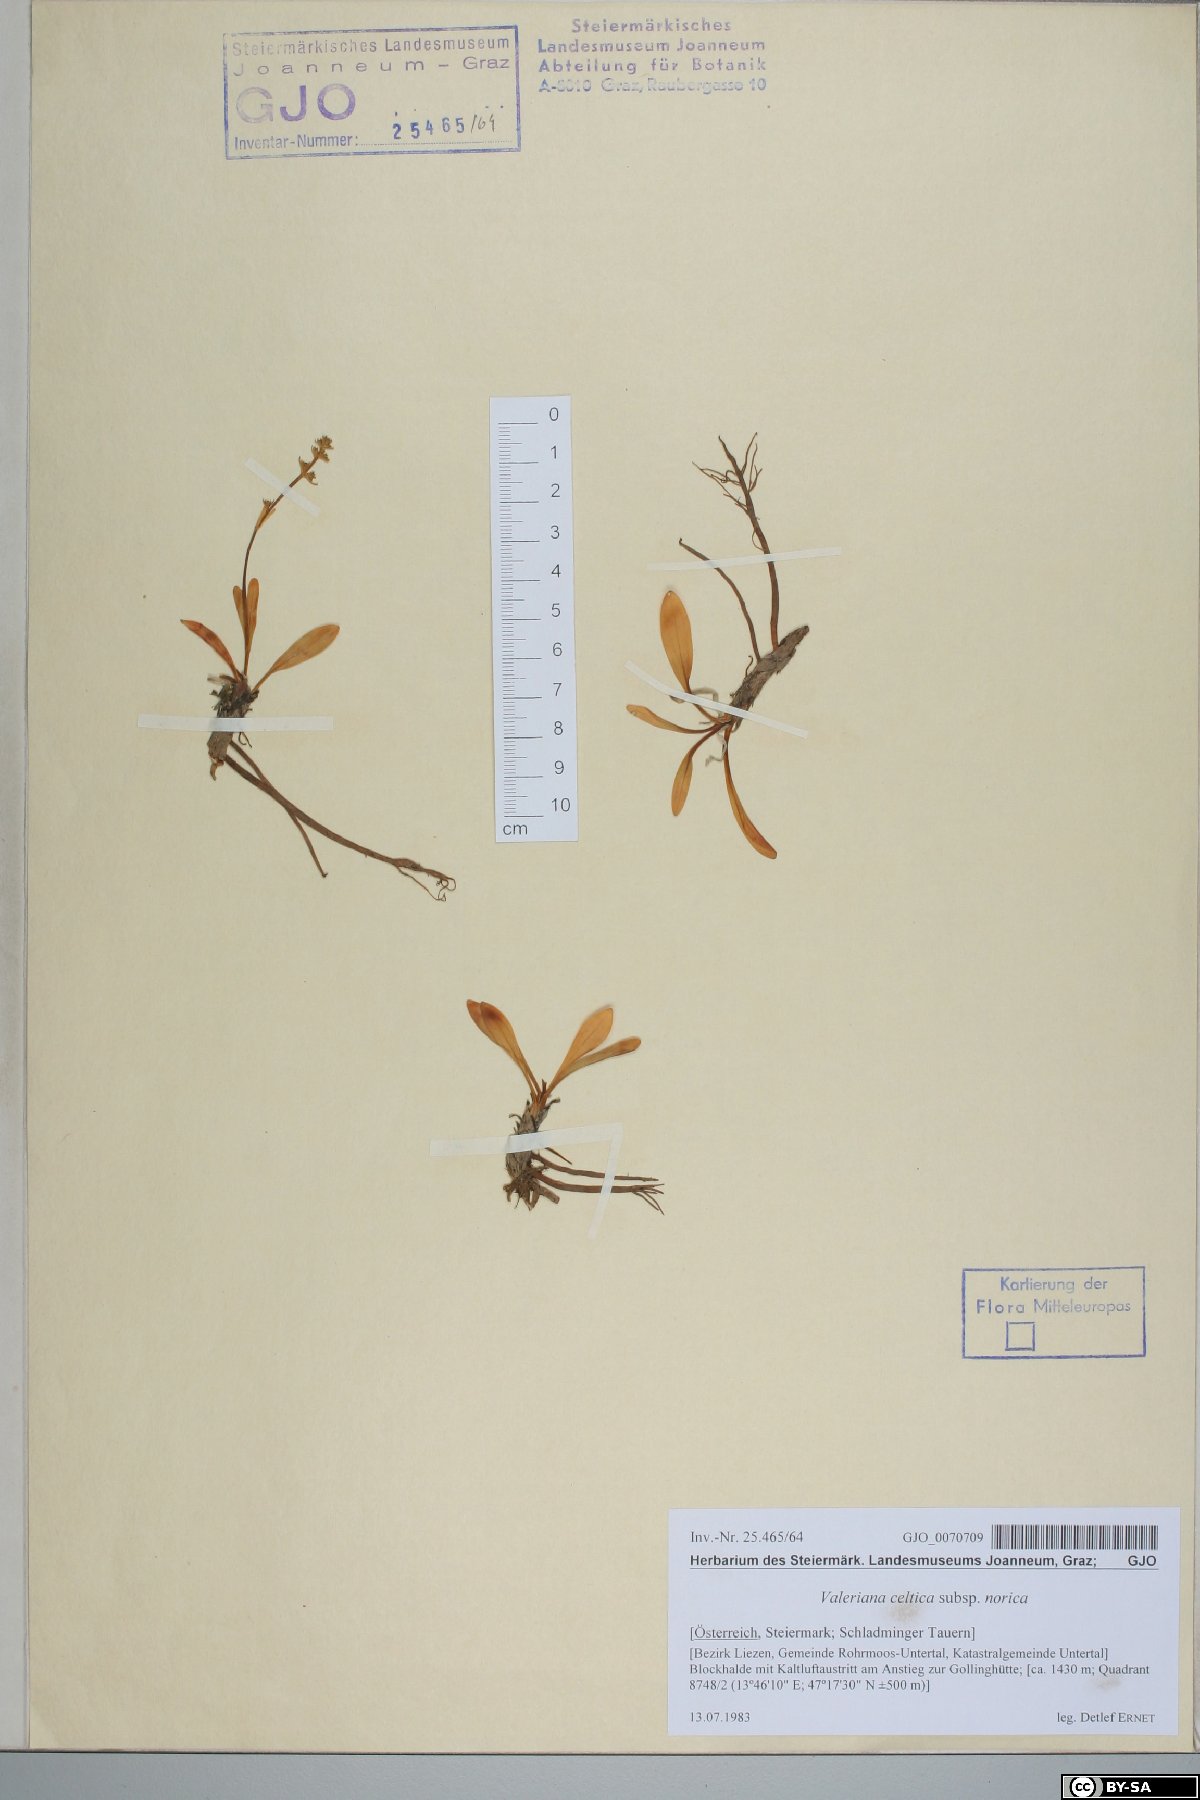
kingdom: Plantae
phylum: Tracheophyta
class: Magnoliopsida
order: Dipsacales
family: Caprifoliaceae
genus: Valeriana
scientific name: Valeriana celtica
